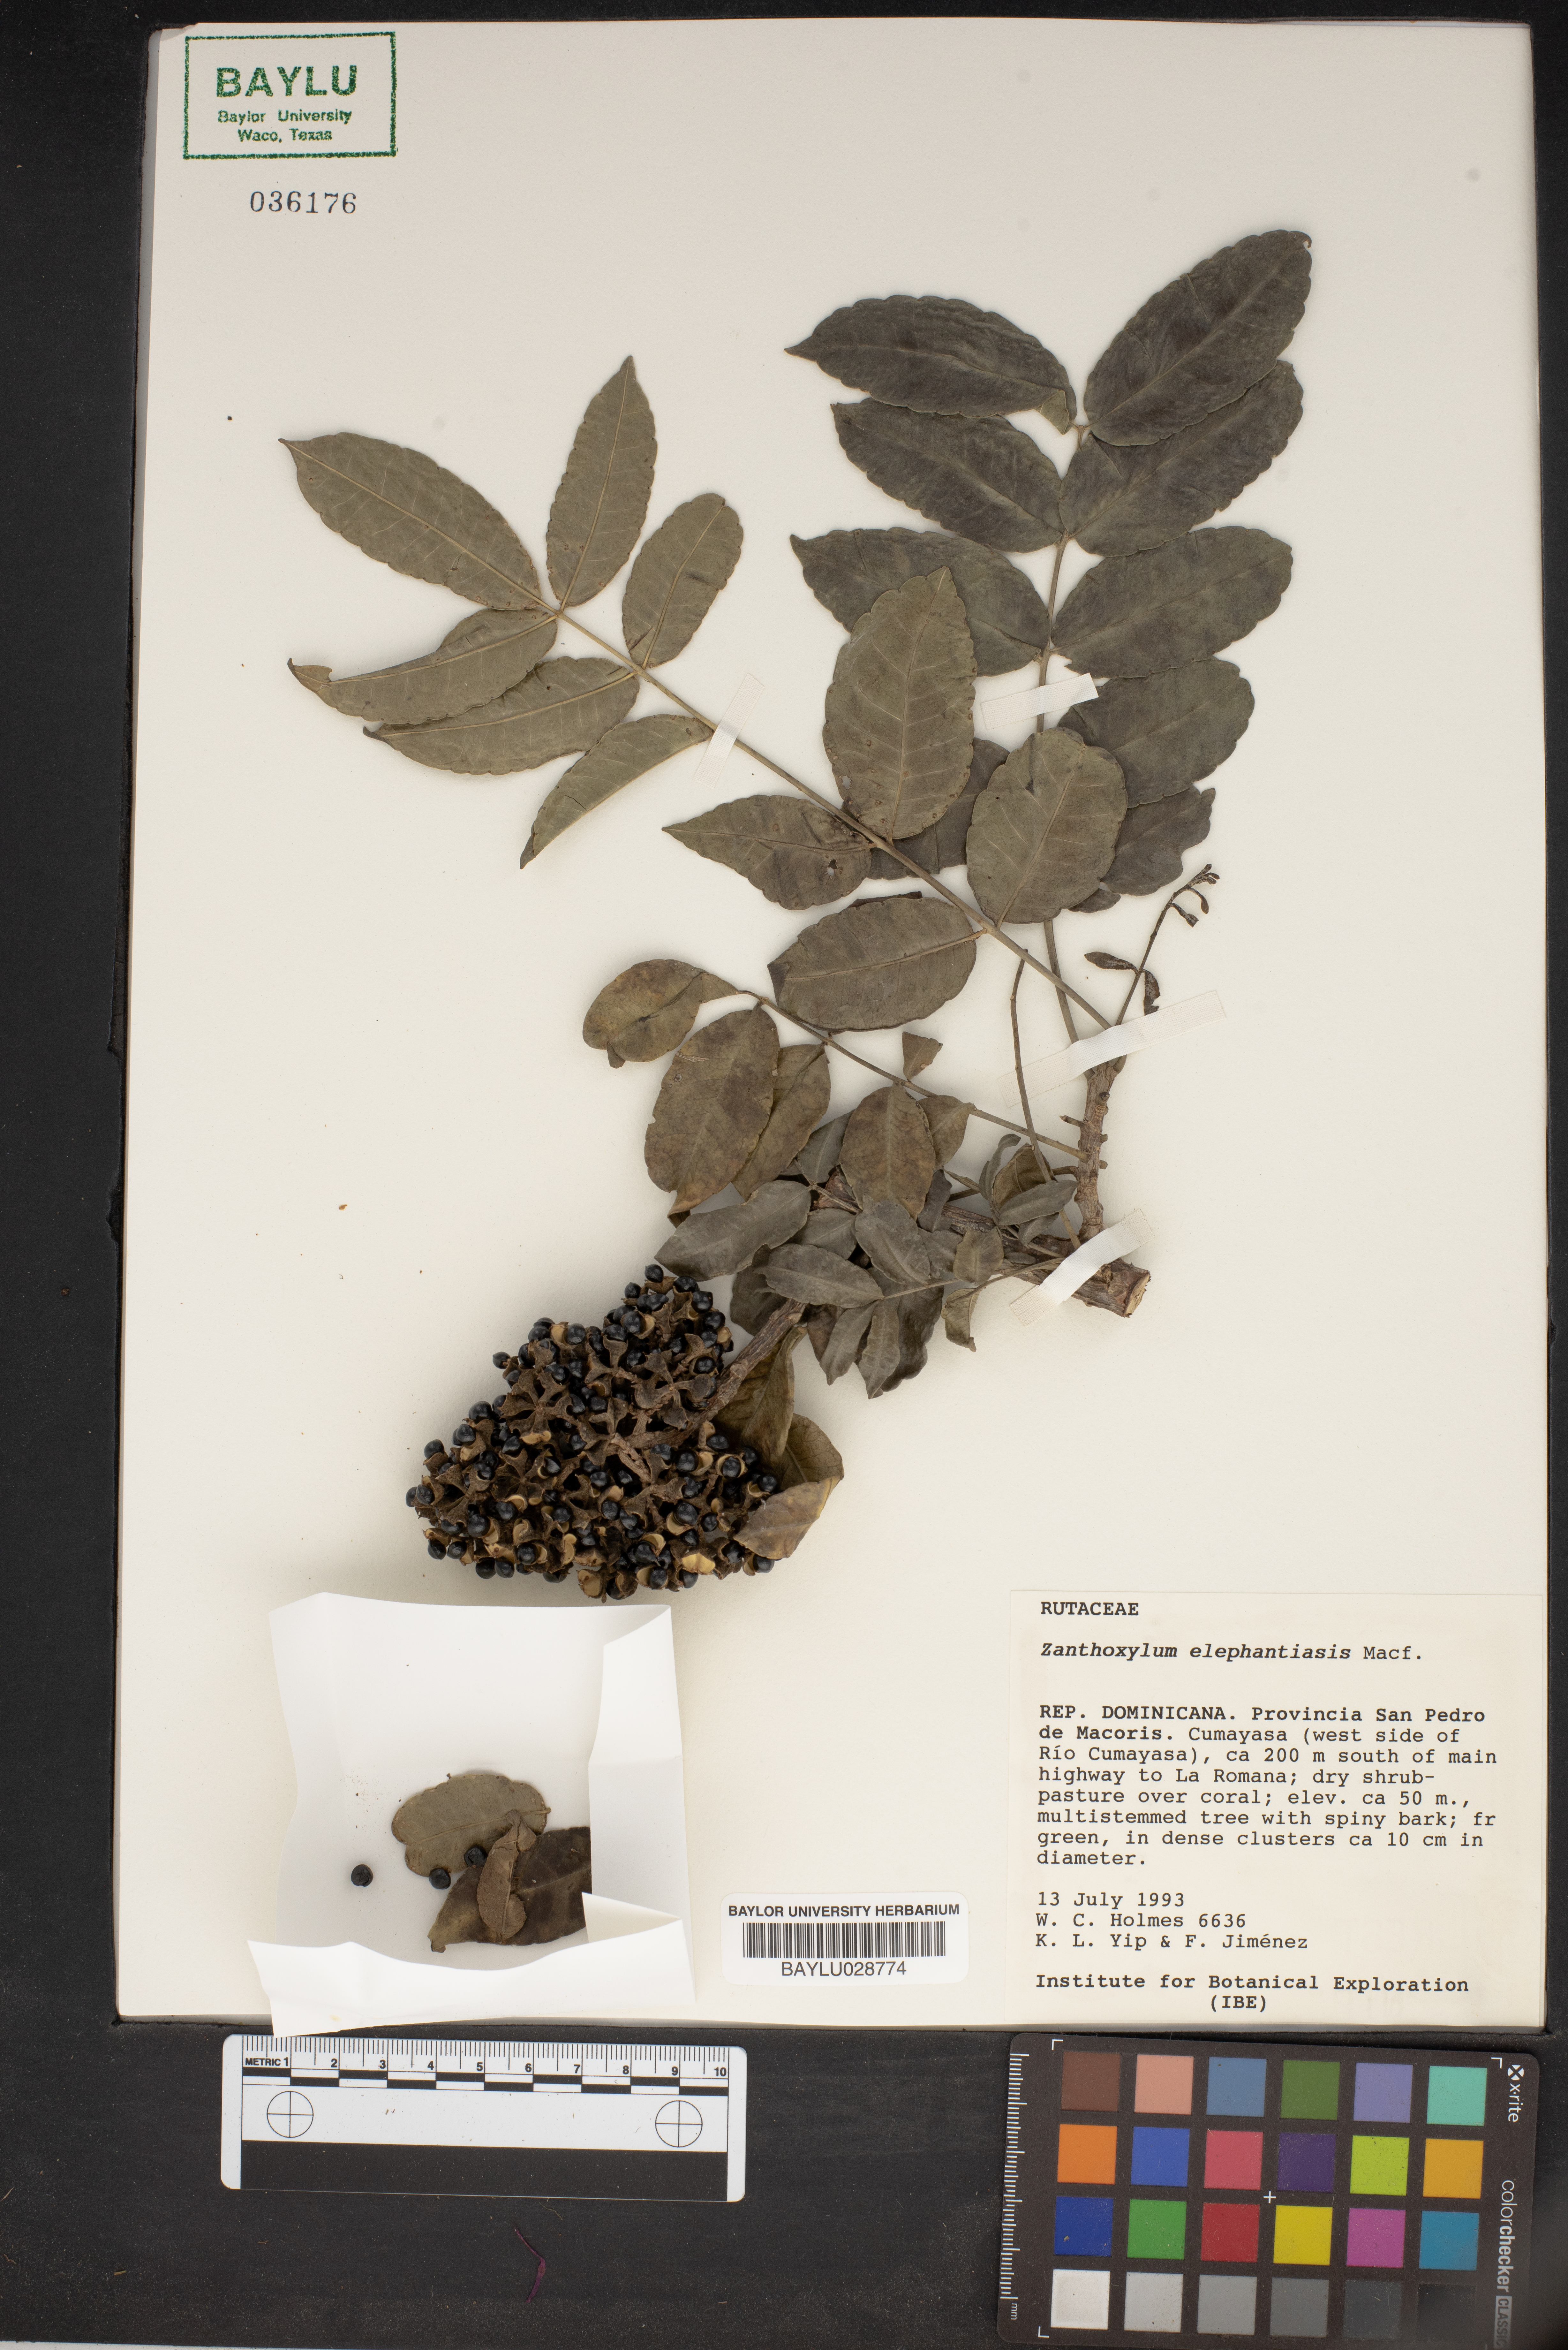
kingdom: Plantae
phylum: Tracheophyta
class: Magnoliopsida
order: Sapindales
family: Rutaceae
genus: Zanthoxylum
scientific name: Zanthoxylum caribaeum
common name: Prickly yellow
